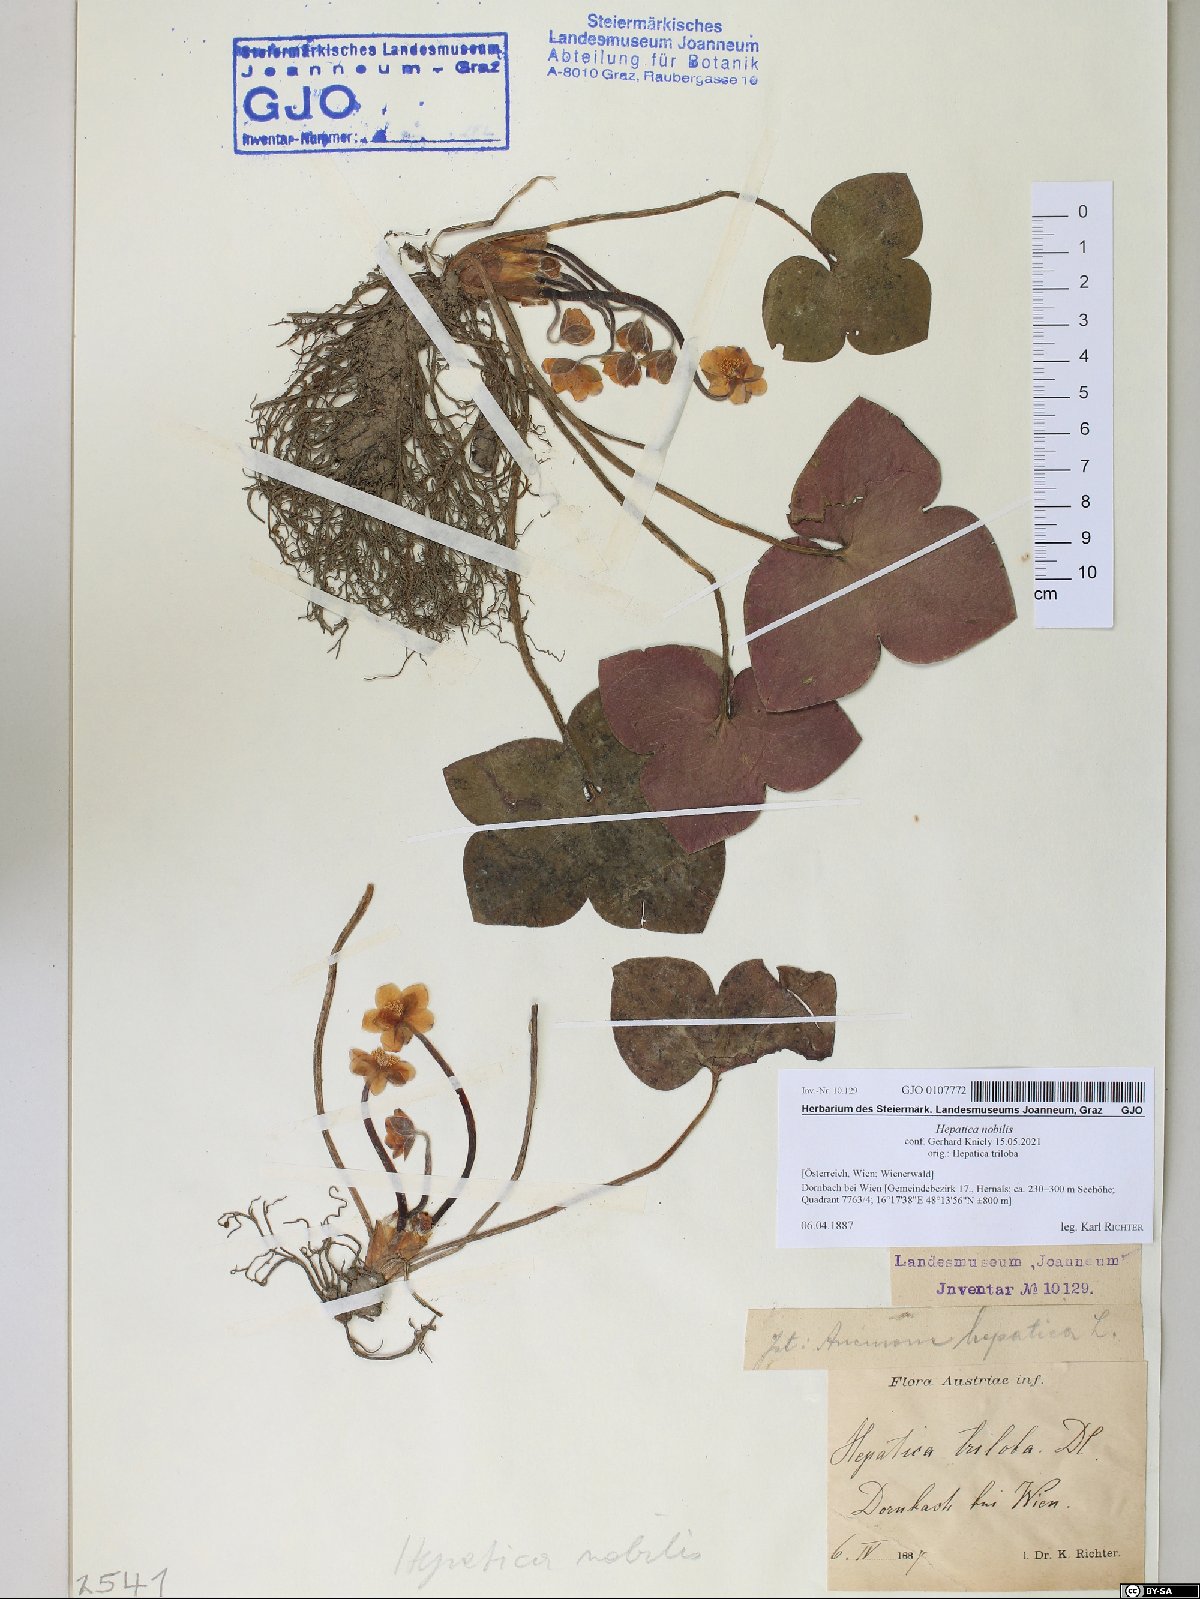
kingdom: Plantae
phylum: Tracheophyta
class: Magnoliopsida
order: Ranunculales
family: Ranunculaceae
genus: Hepatica
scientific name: Hepatica nobilis
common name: Liverleaf
